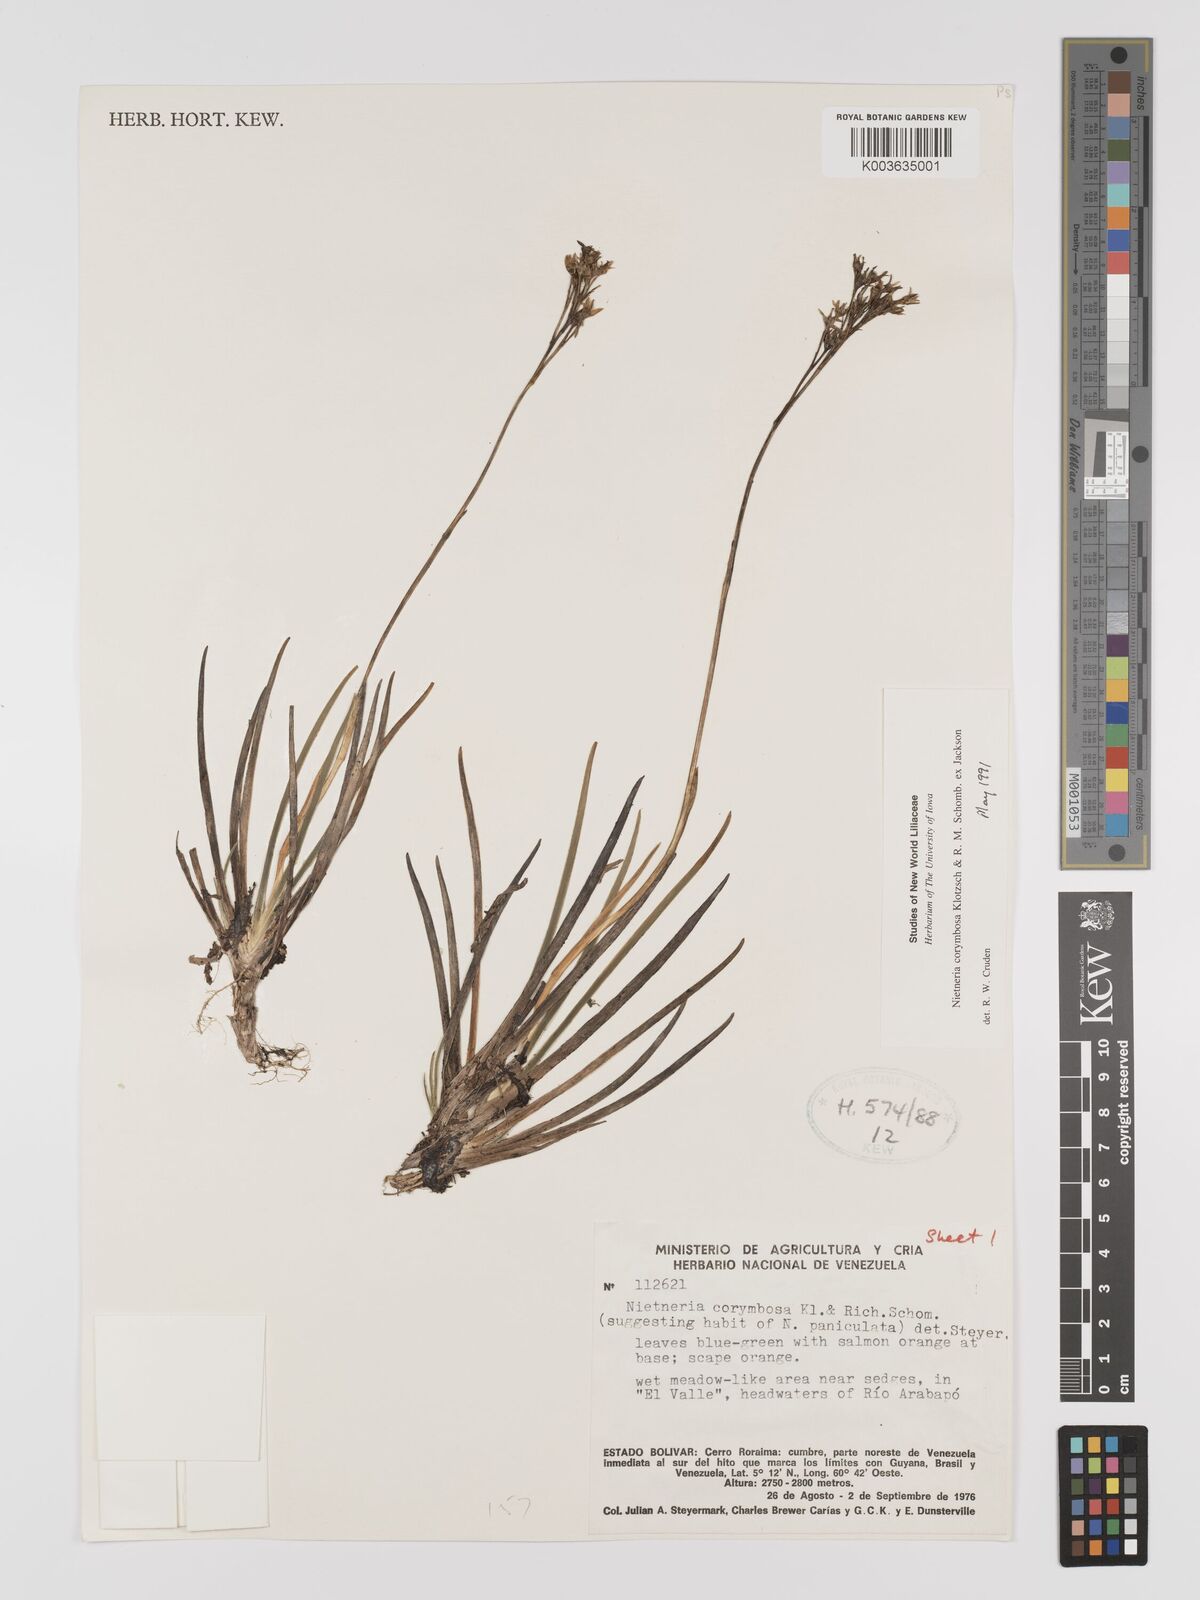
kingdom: Plantae
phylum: Tracheophyta
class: Liliopsida
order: Dioscoreales
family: Nartheciaceae
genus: Nietneria
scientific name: Nietneria corymbosa
